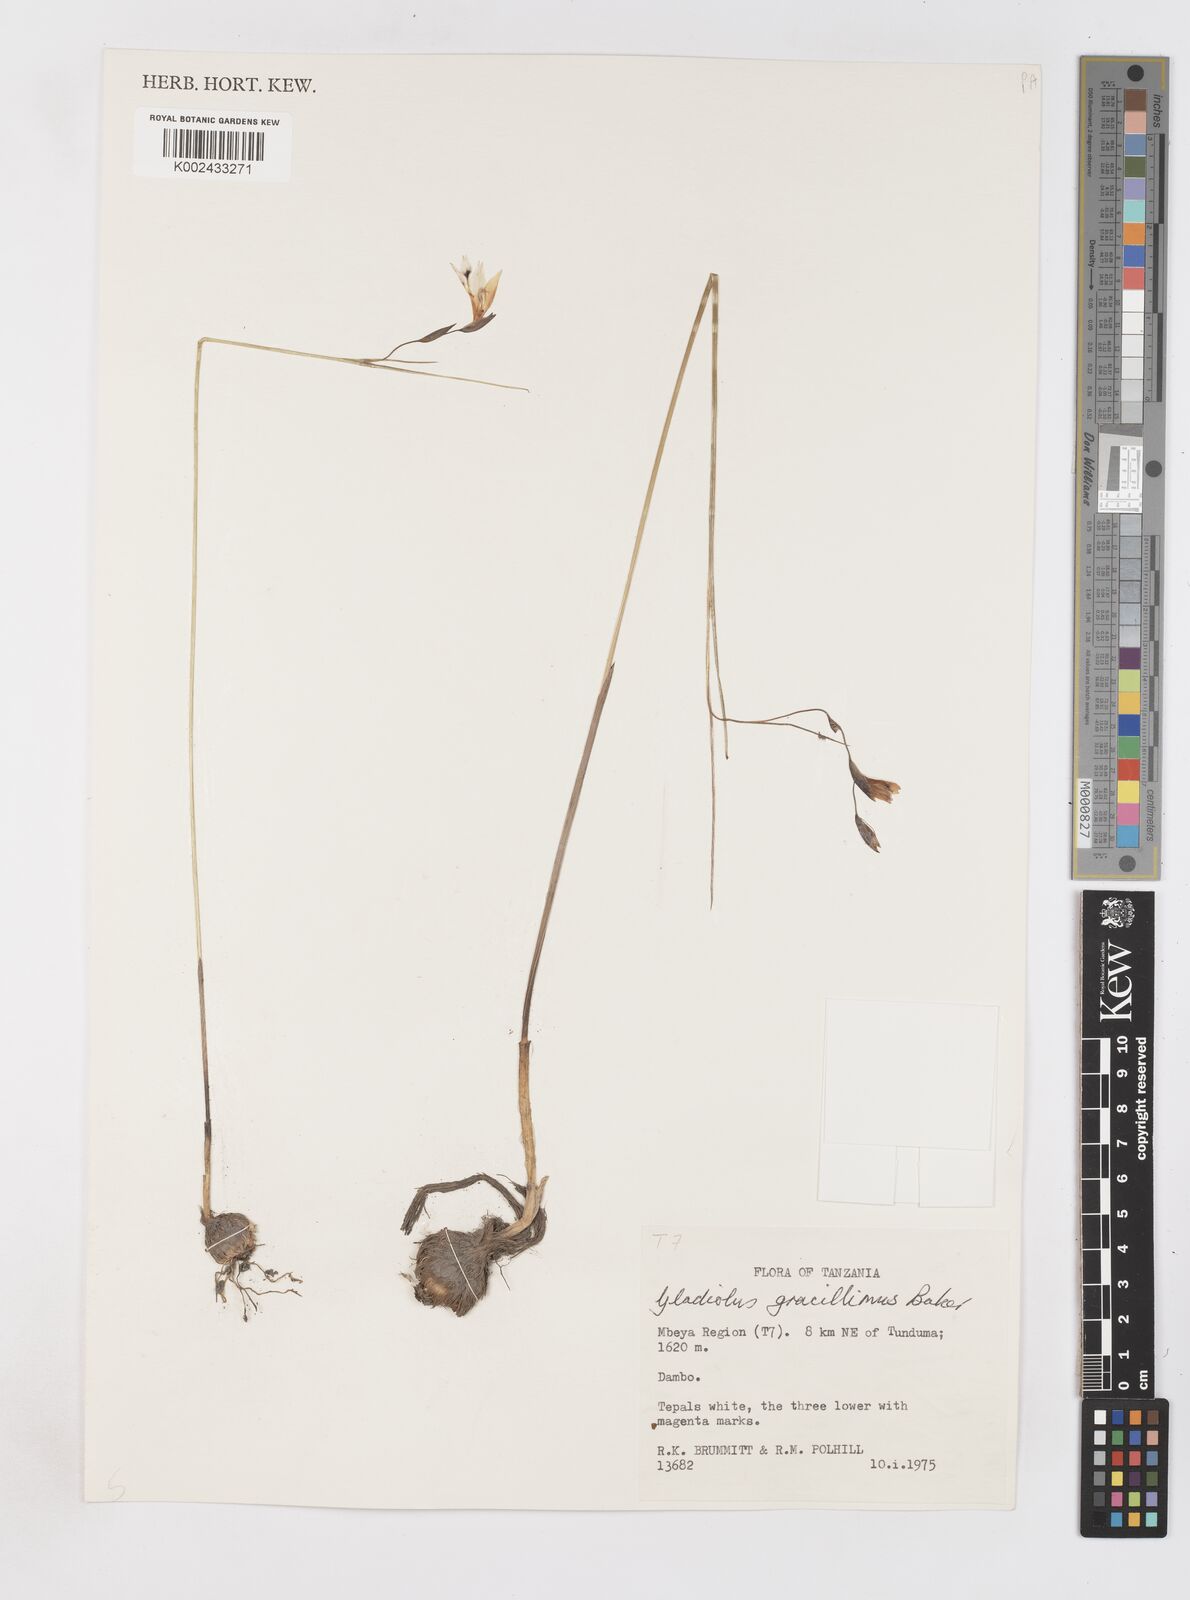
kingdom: Plantae
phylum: Tracheophyta
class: Liliopsida
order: Asparagales
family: Iridaceae
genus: Gladiolus
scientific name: Gladiolus gracillimus
